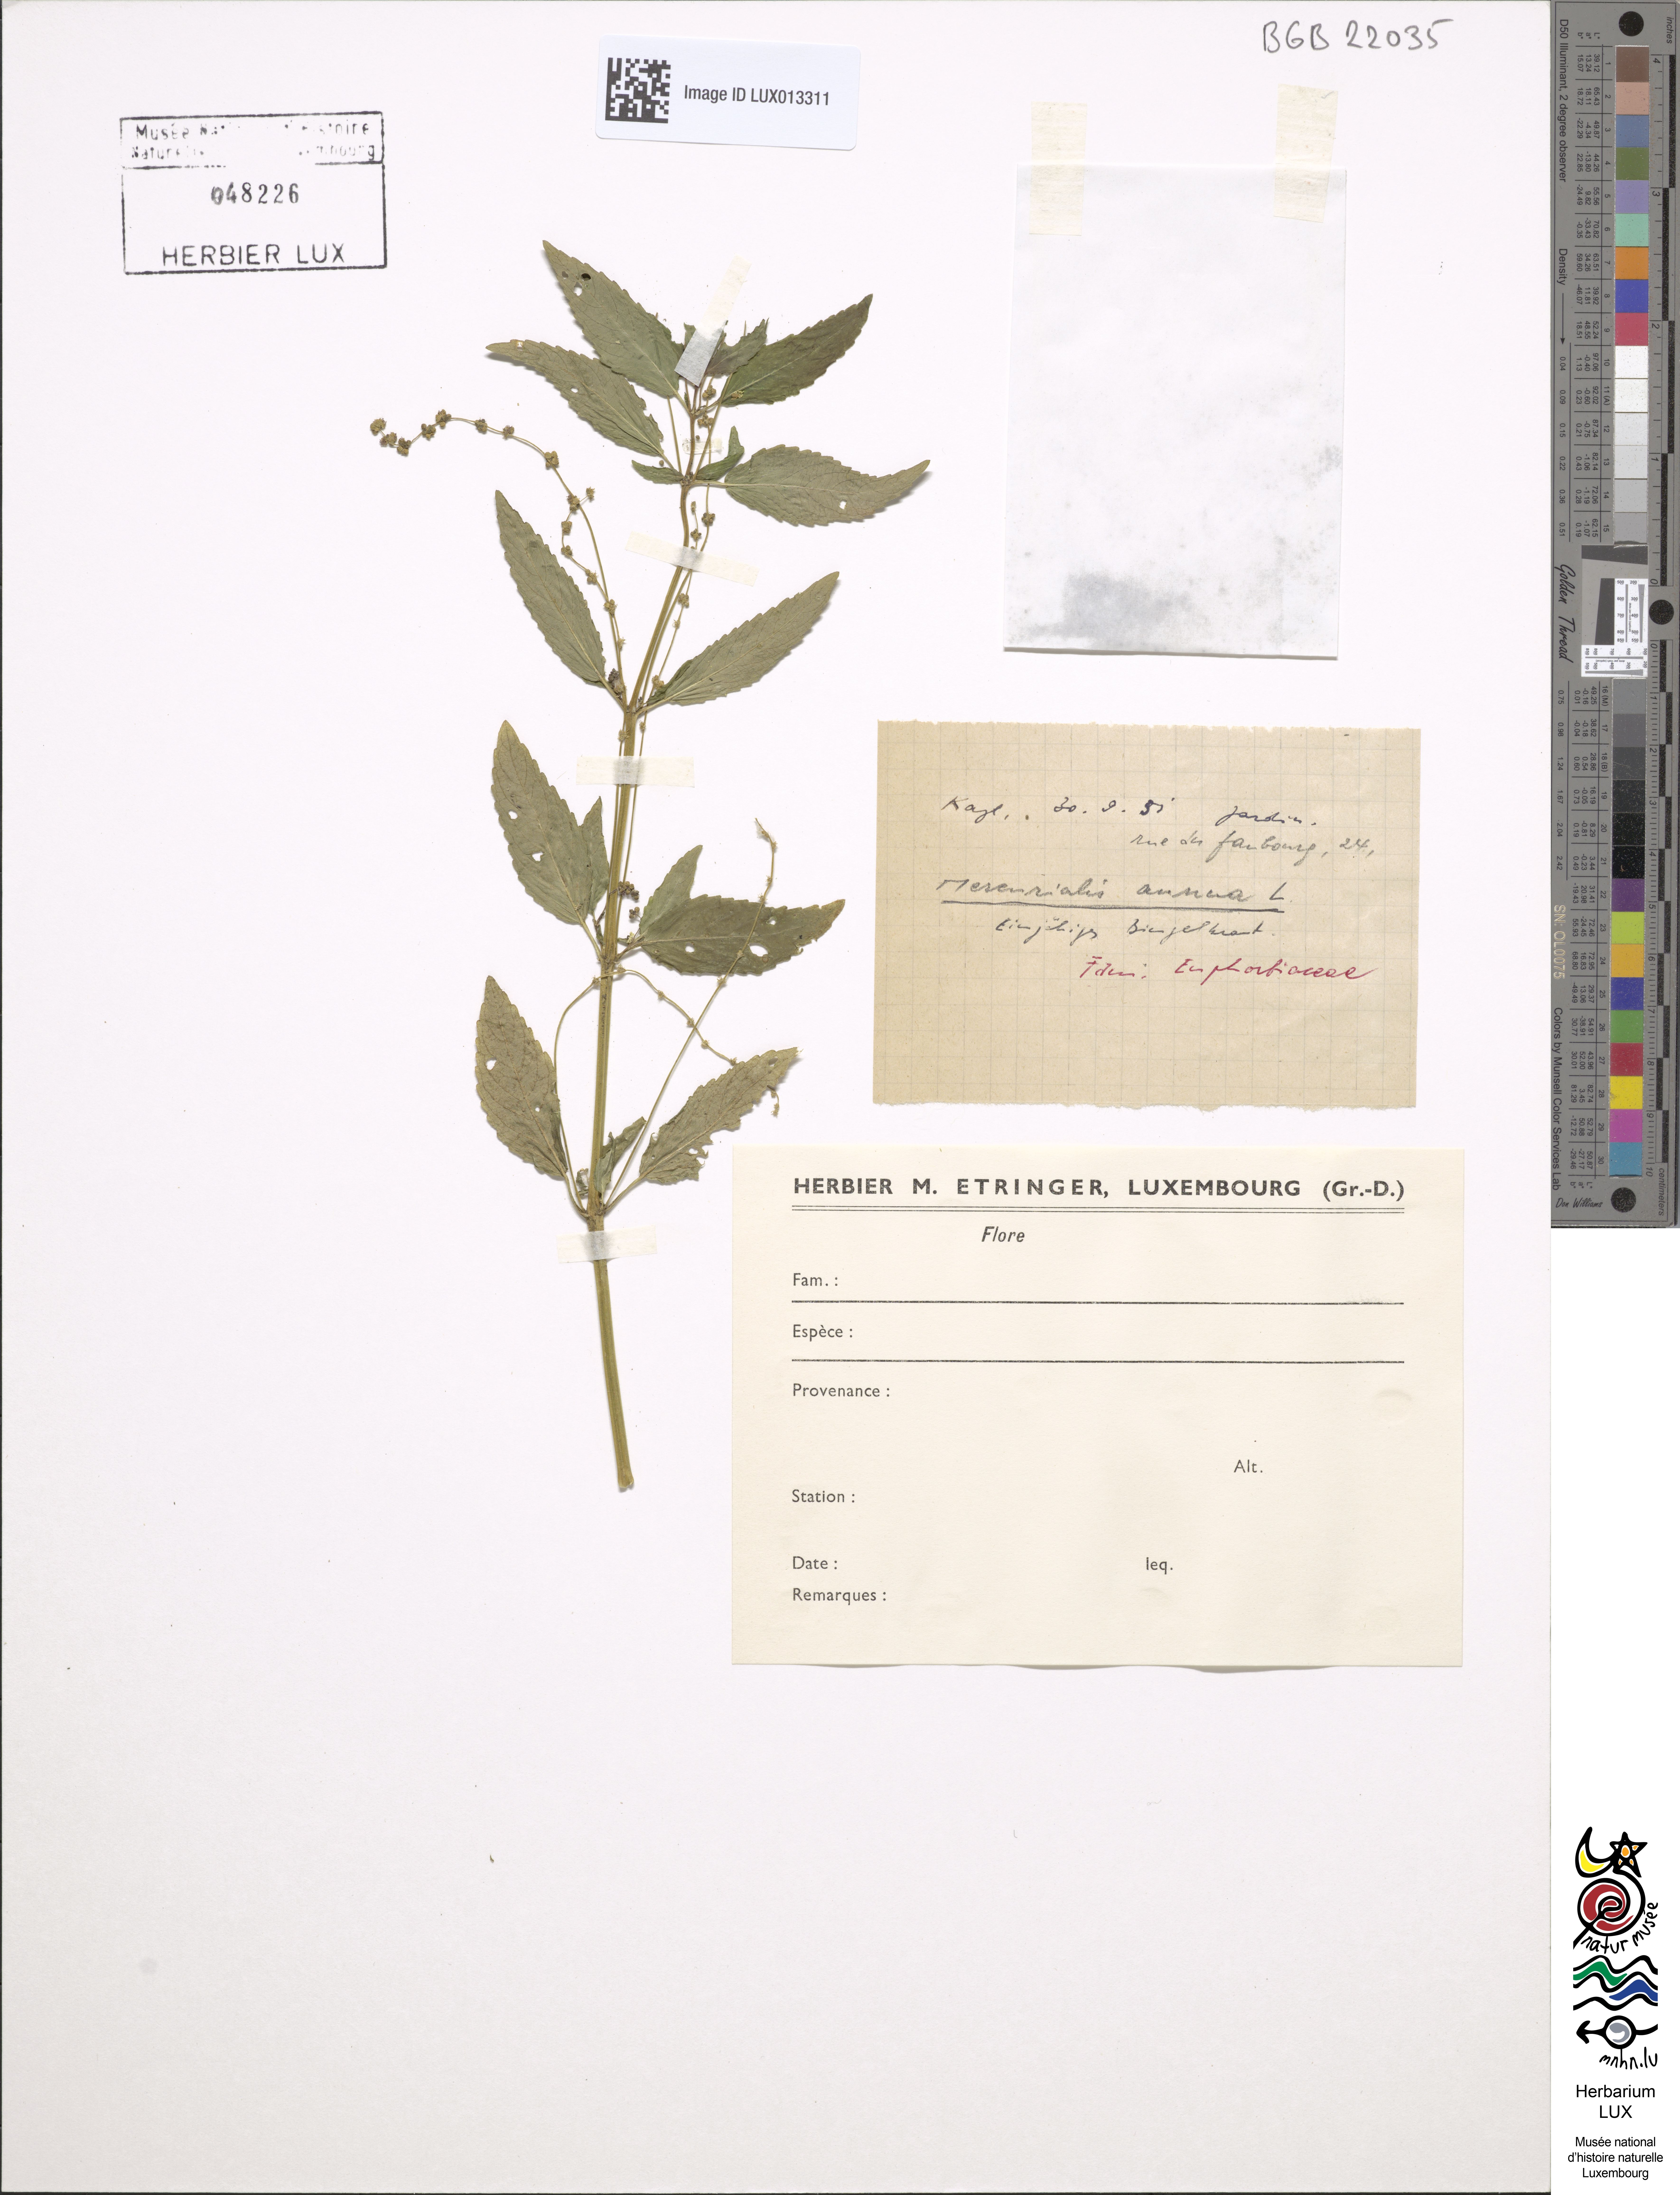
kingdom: Plantae
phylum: Tracheophyta
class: Magnoliopsida
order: Malpighiales
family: Euphorbiaceae
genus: Mercurialis
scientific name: Mercurialis annua
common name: Annual mercury
